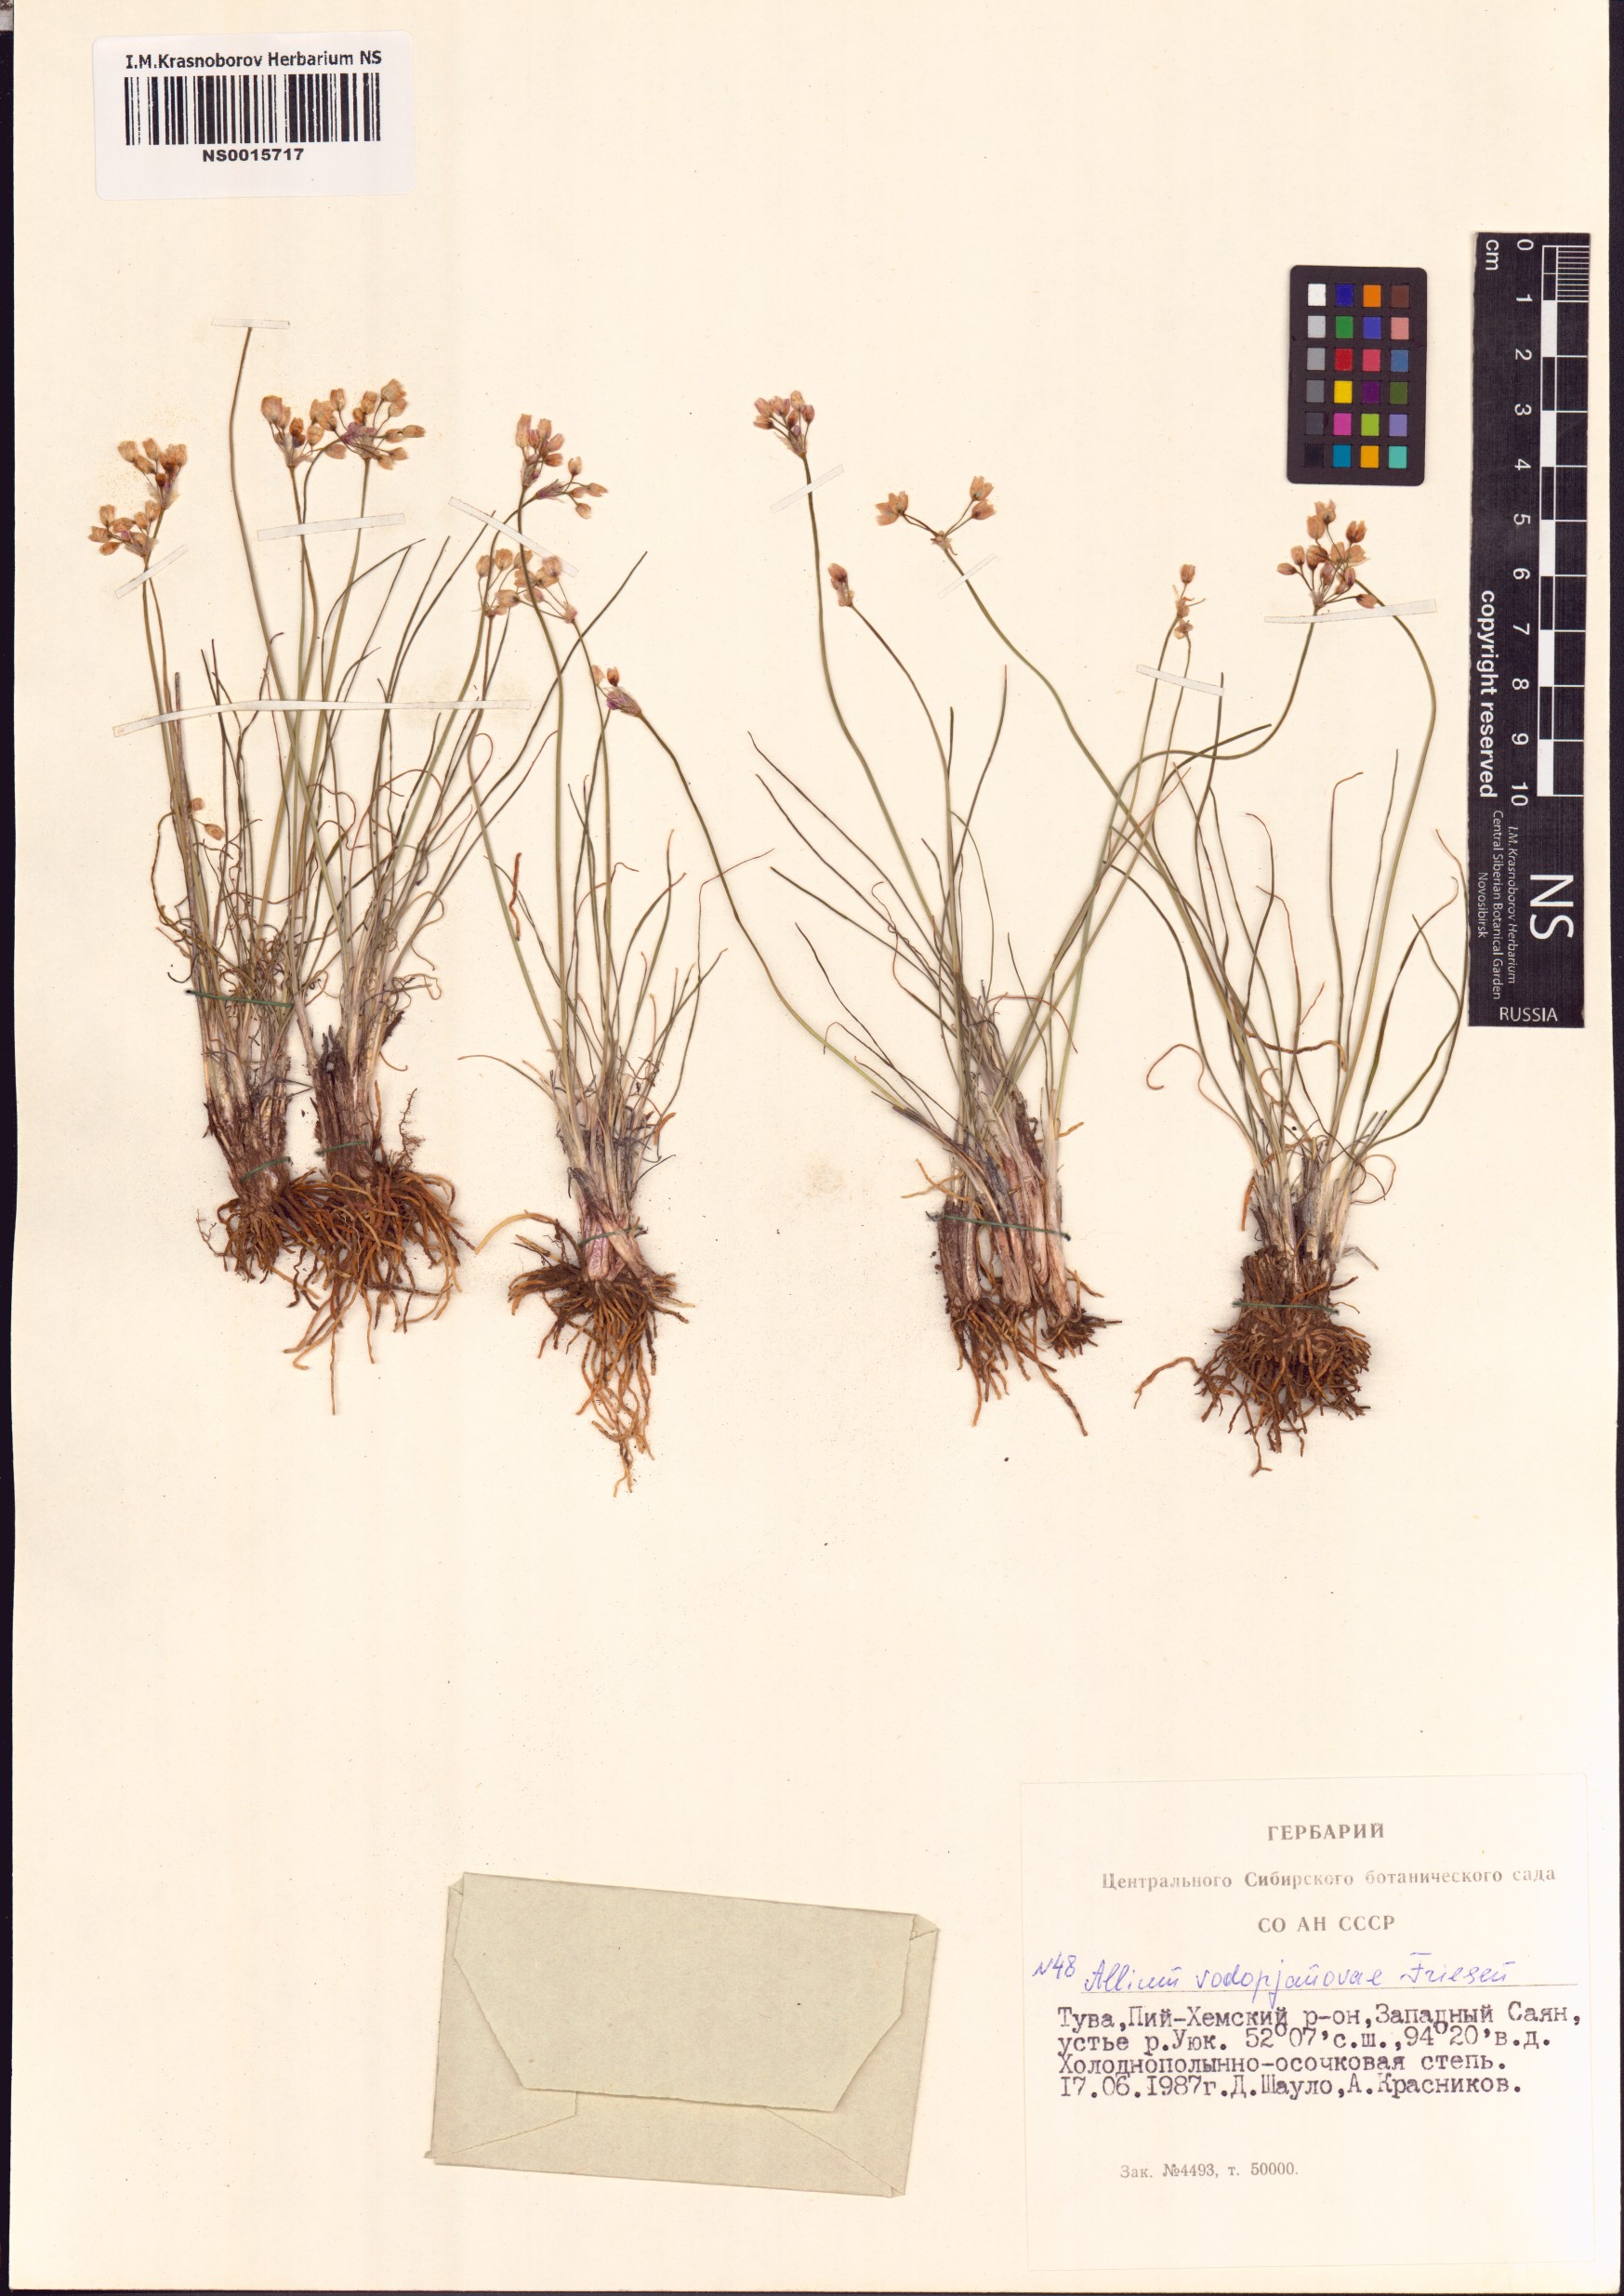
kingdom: Plantae
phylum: Tracheophyta
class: Liliopsida
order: Asparagales
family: Amaryllidaceae
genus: Allium
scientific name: Allium vodopjanovae
